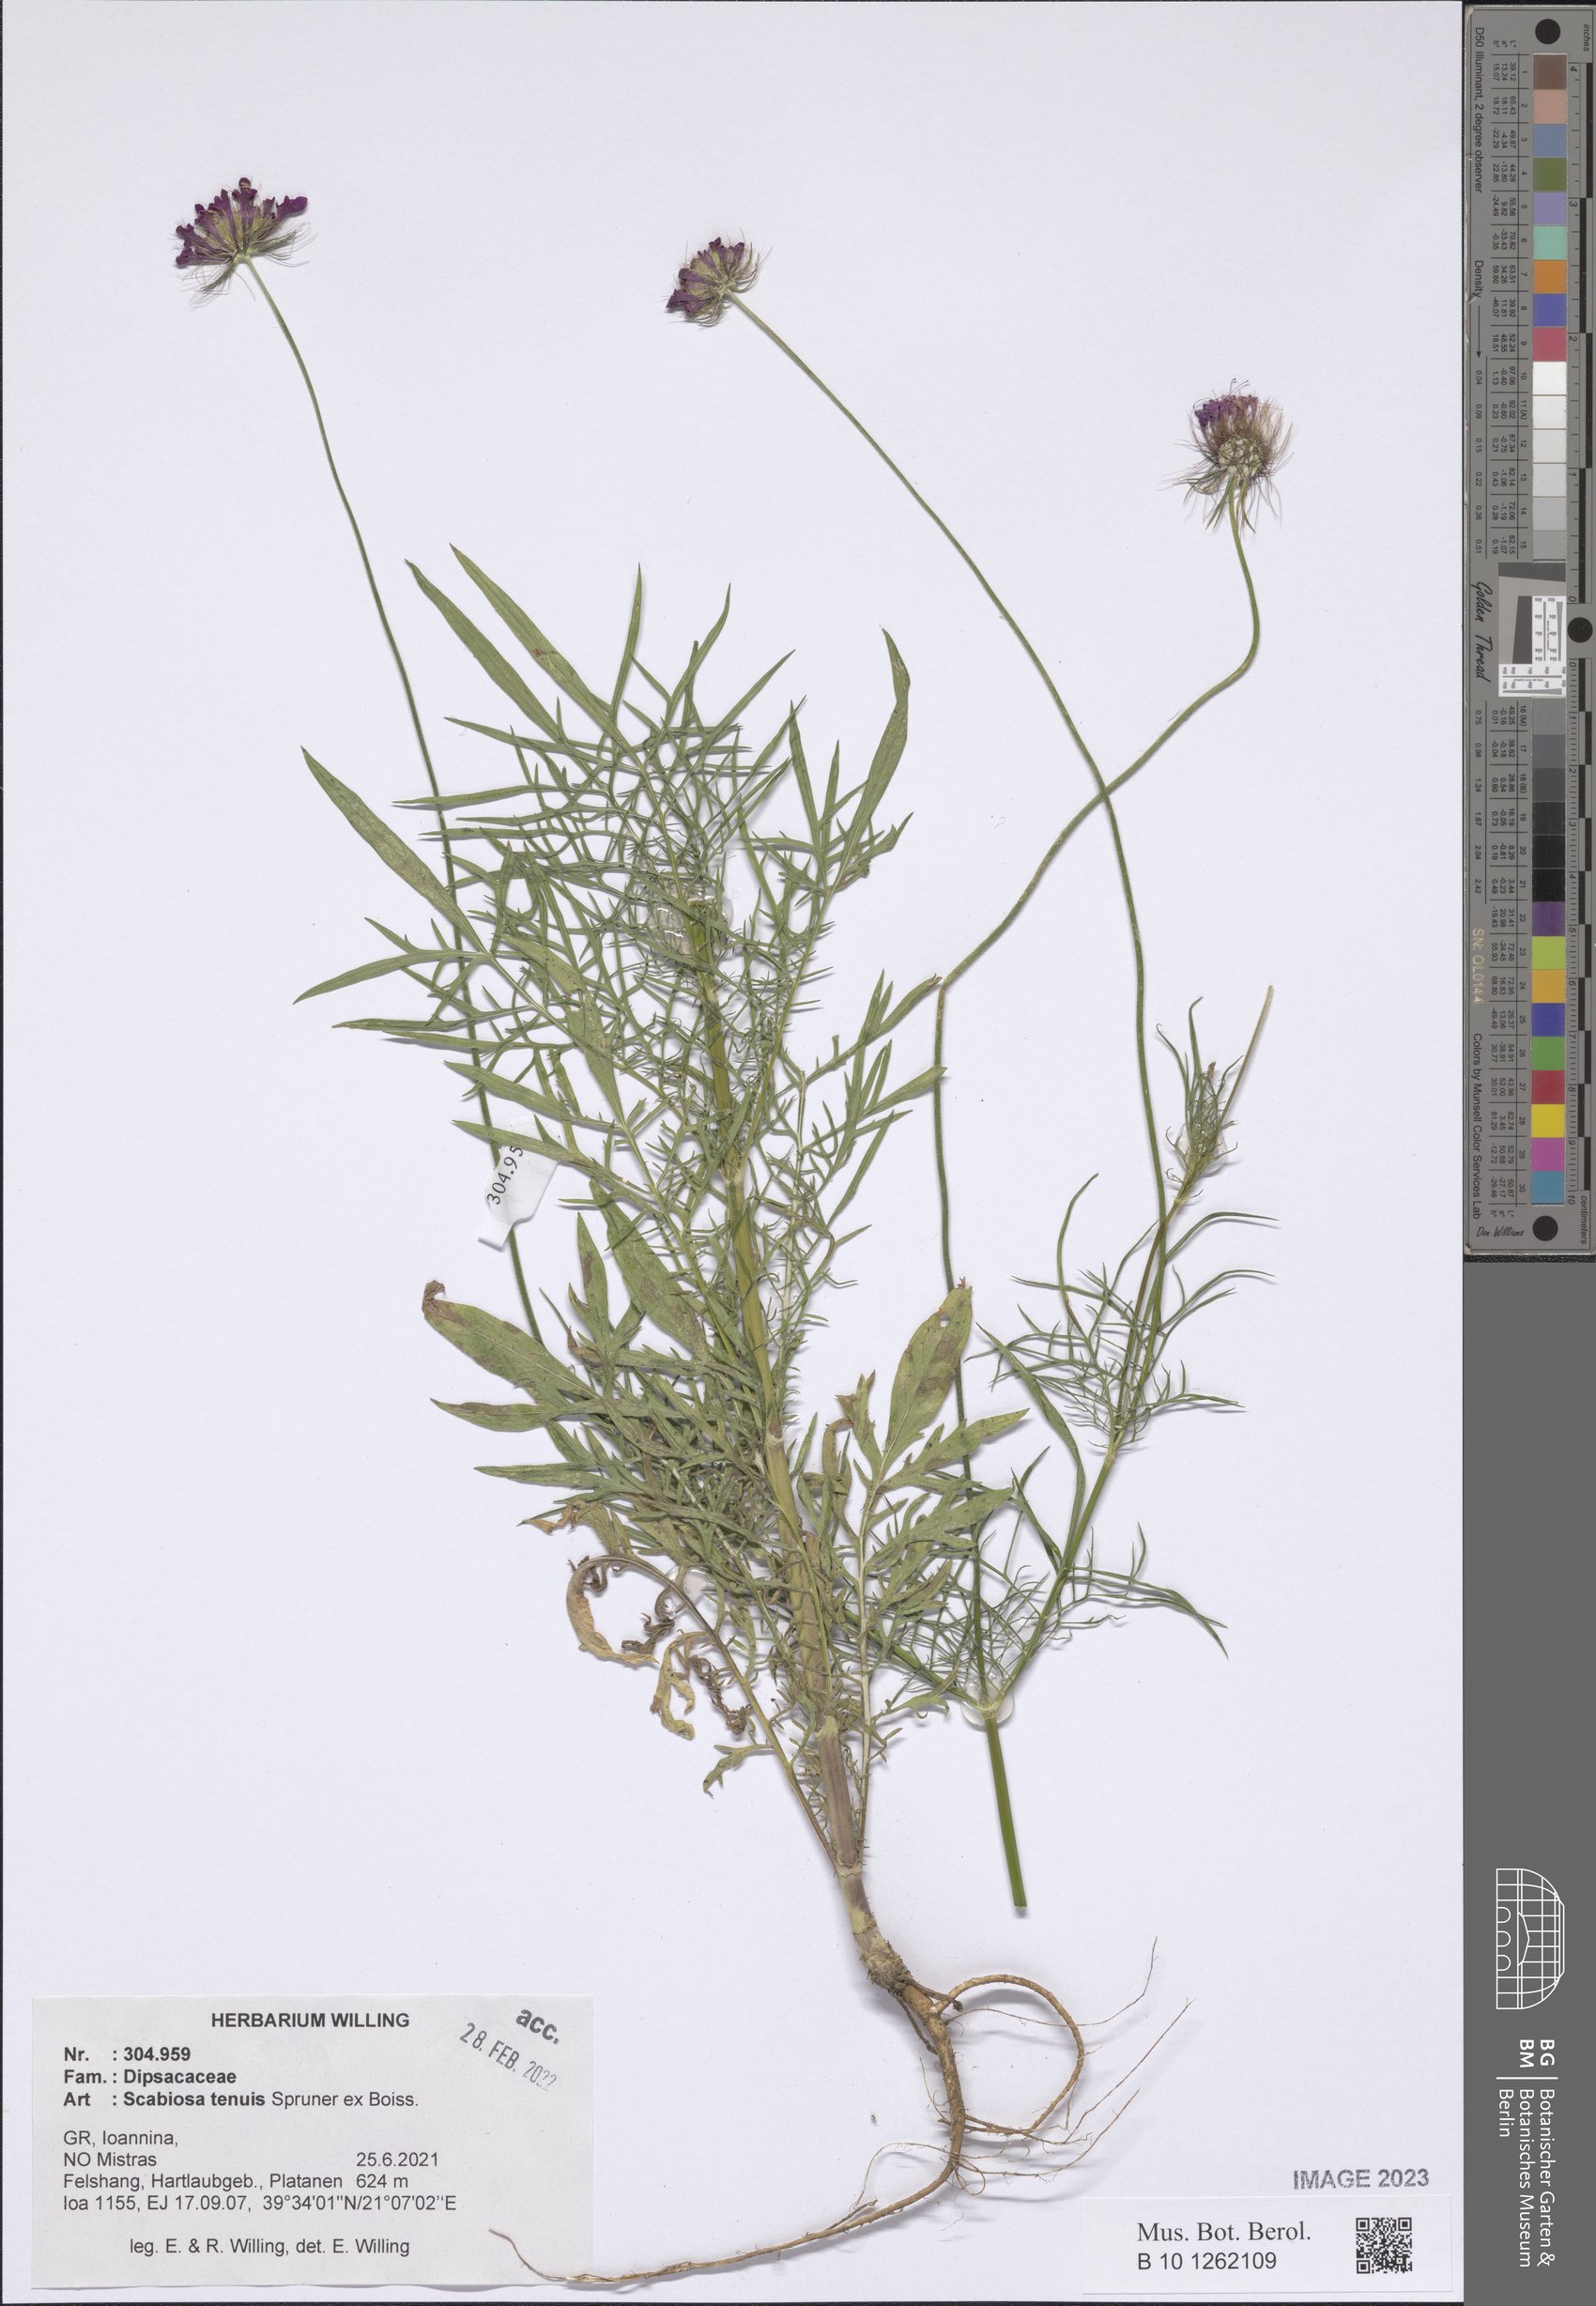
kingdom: Plantae
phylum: Tracheophyta
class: Magnoliopsida
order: Dipsacales
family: Caprifoliaceae
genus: Scabiosa
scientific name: Scabiosa tenuis
